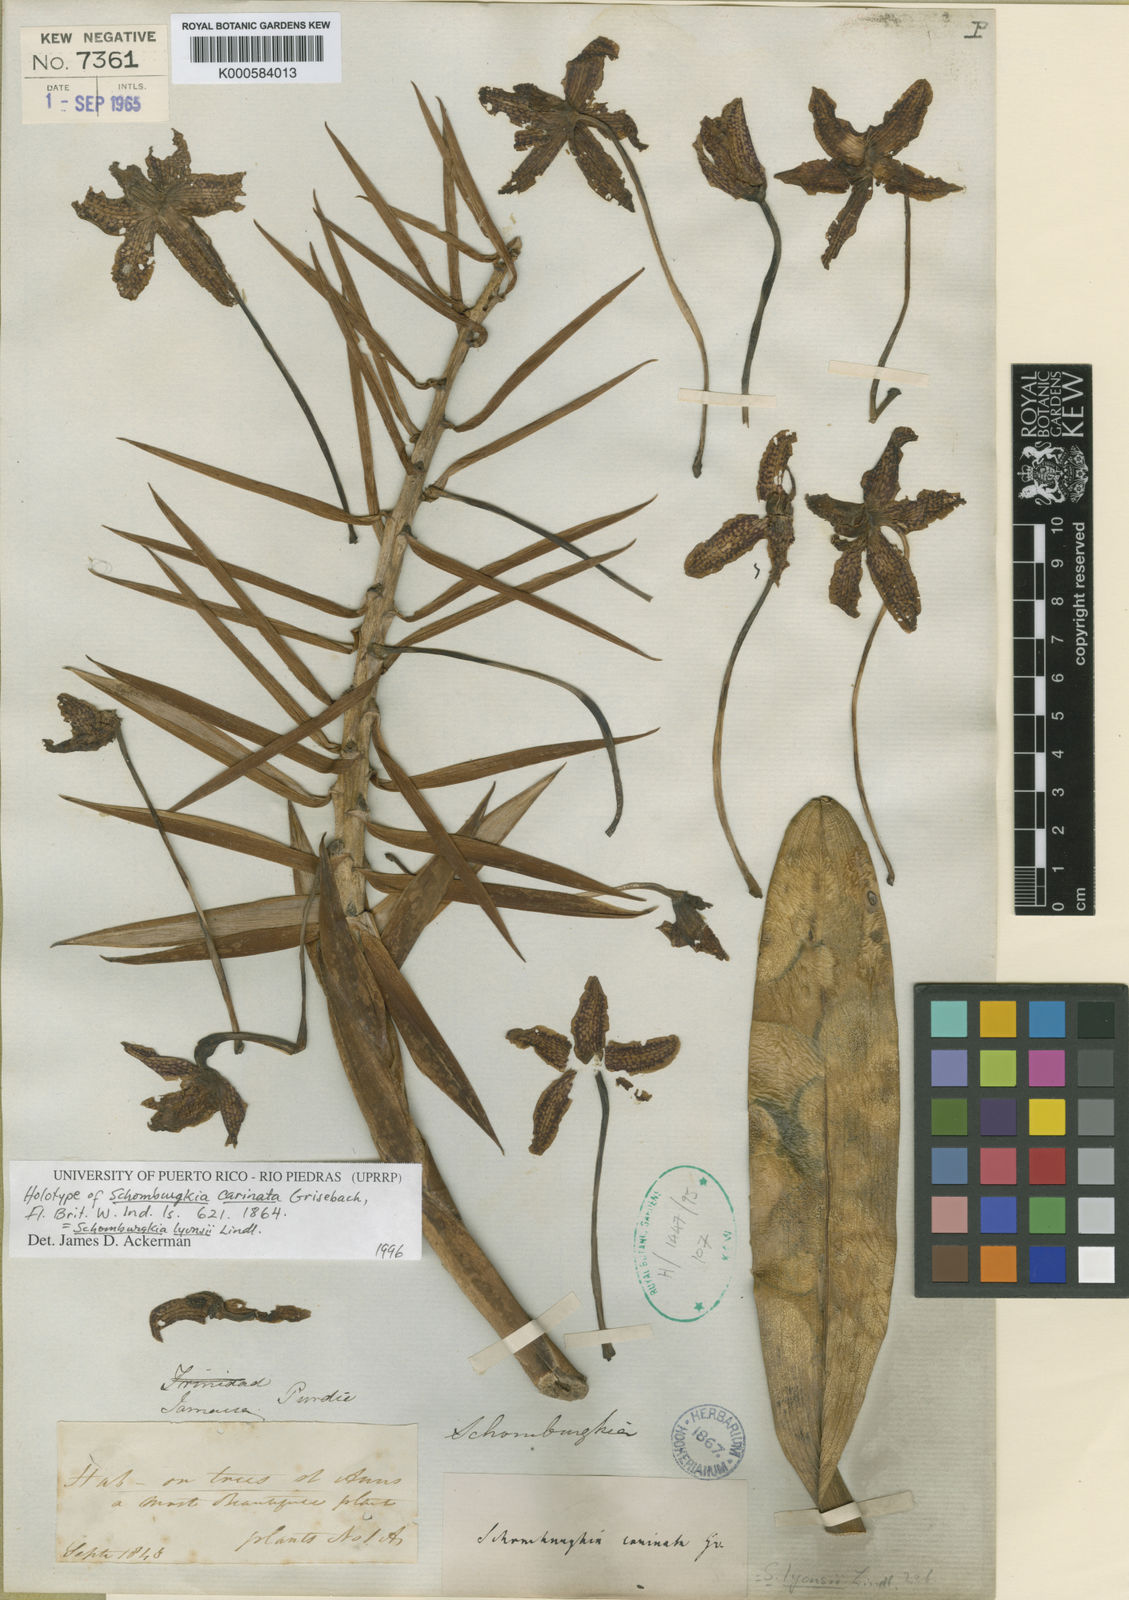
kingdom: Plantae
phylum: Tracheophyta
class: Liliopsida
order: Asparagales
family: Orchidaceae
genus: Laelia
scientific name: Laelia lyonsii
